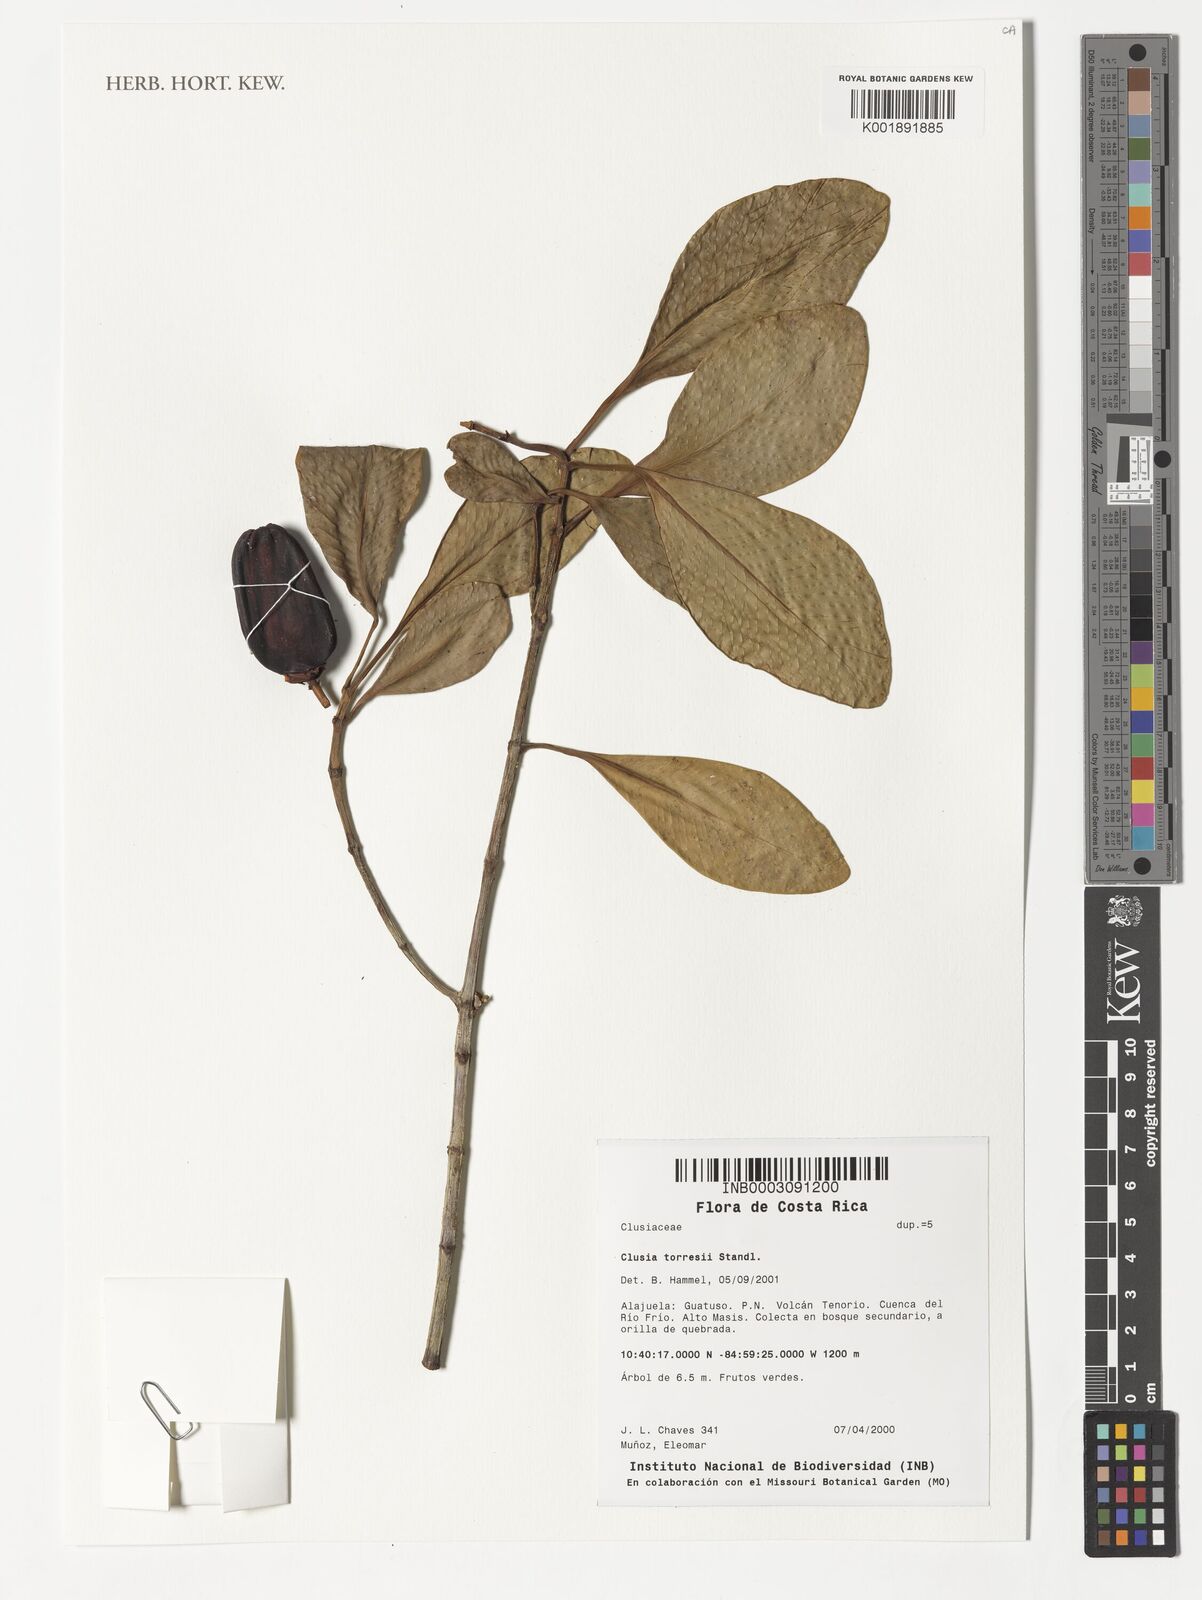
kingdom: Plantae
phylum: Tracheophyta
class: Magnoliopsida
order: Malpighiales
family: Clusiaceae
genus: Clusia
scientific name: Clusia torresii
